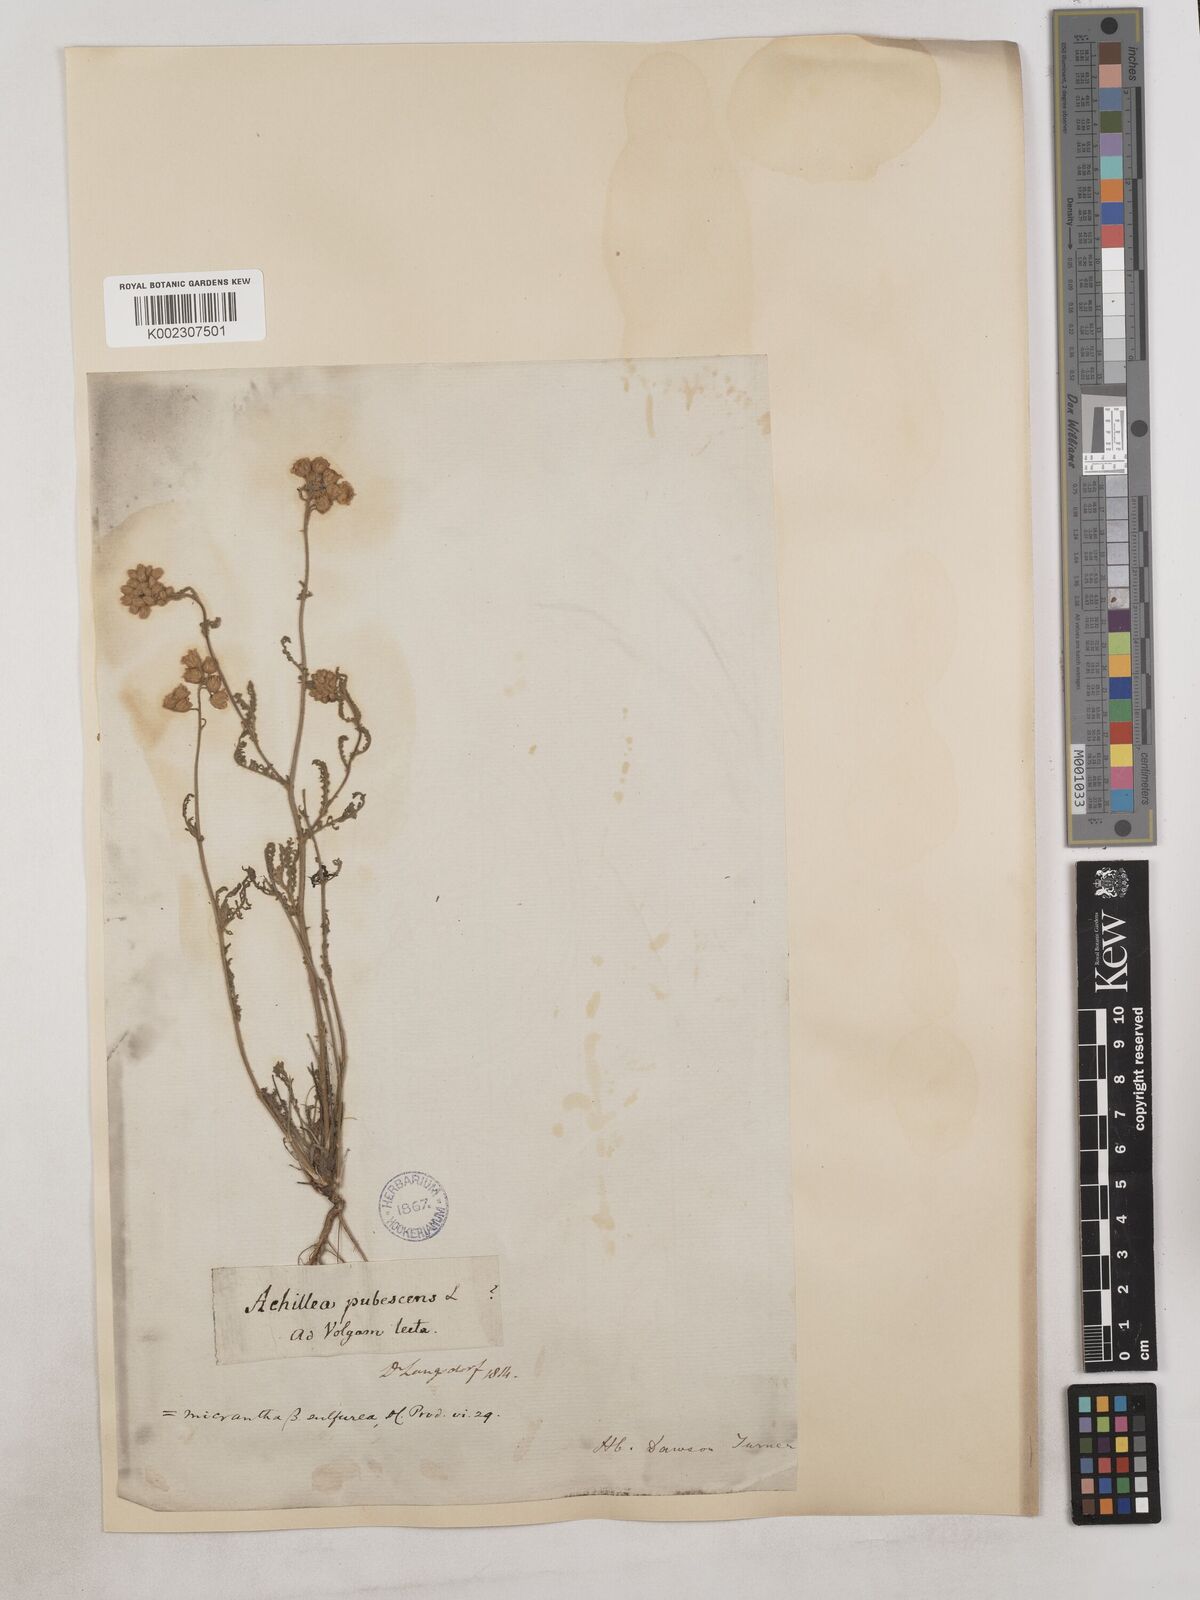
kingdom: Plantae
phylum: Tracheophyta
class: Magnoliopsida
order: Asterales
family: Asteraceae
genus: Achillea
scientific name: Achillea arabica
